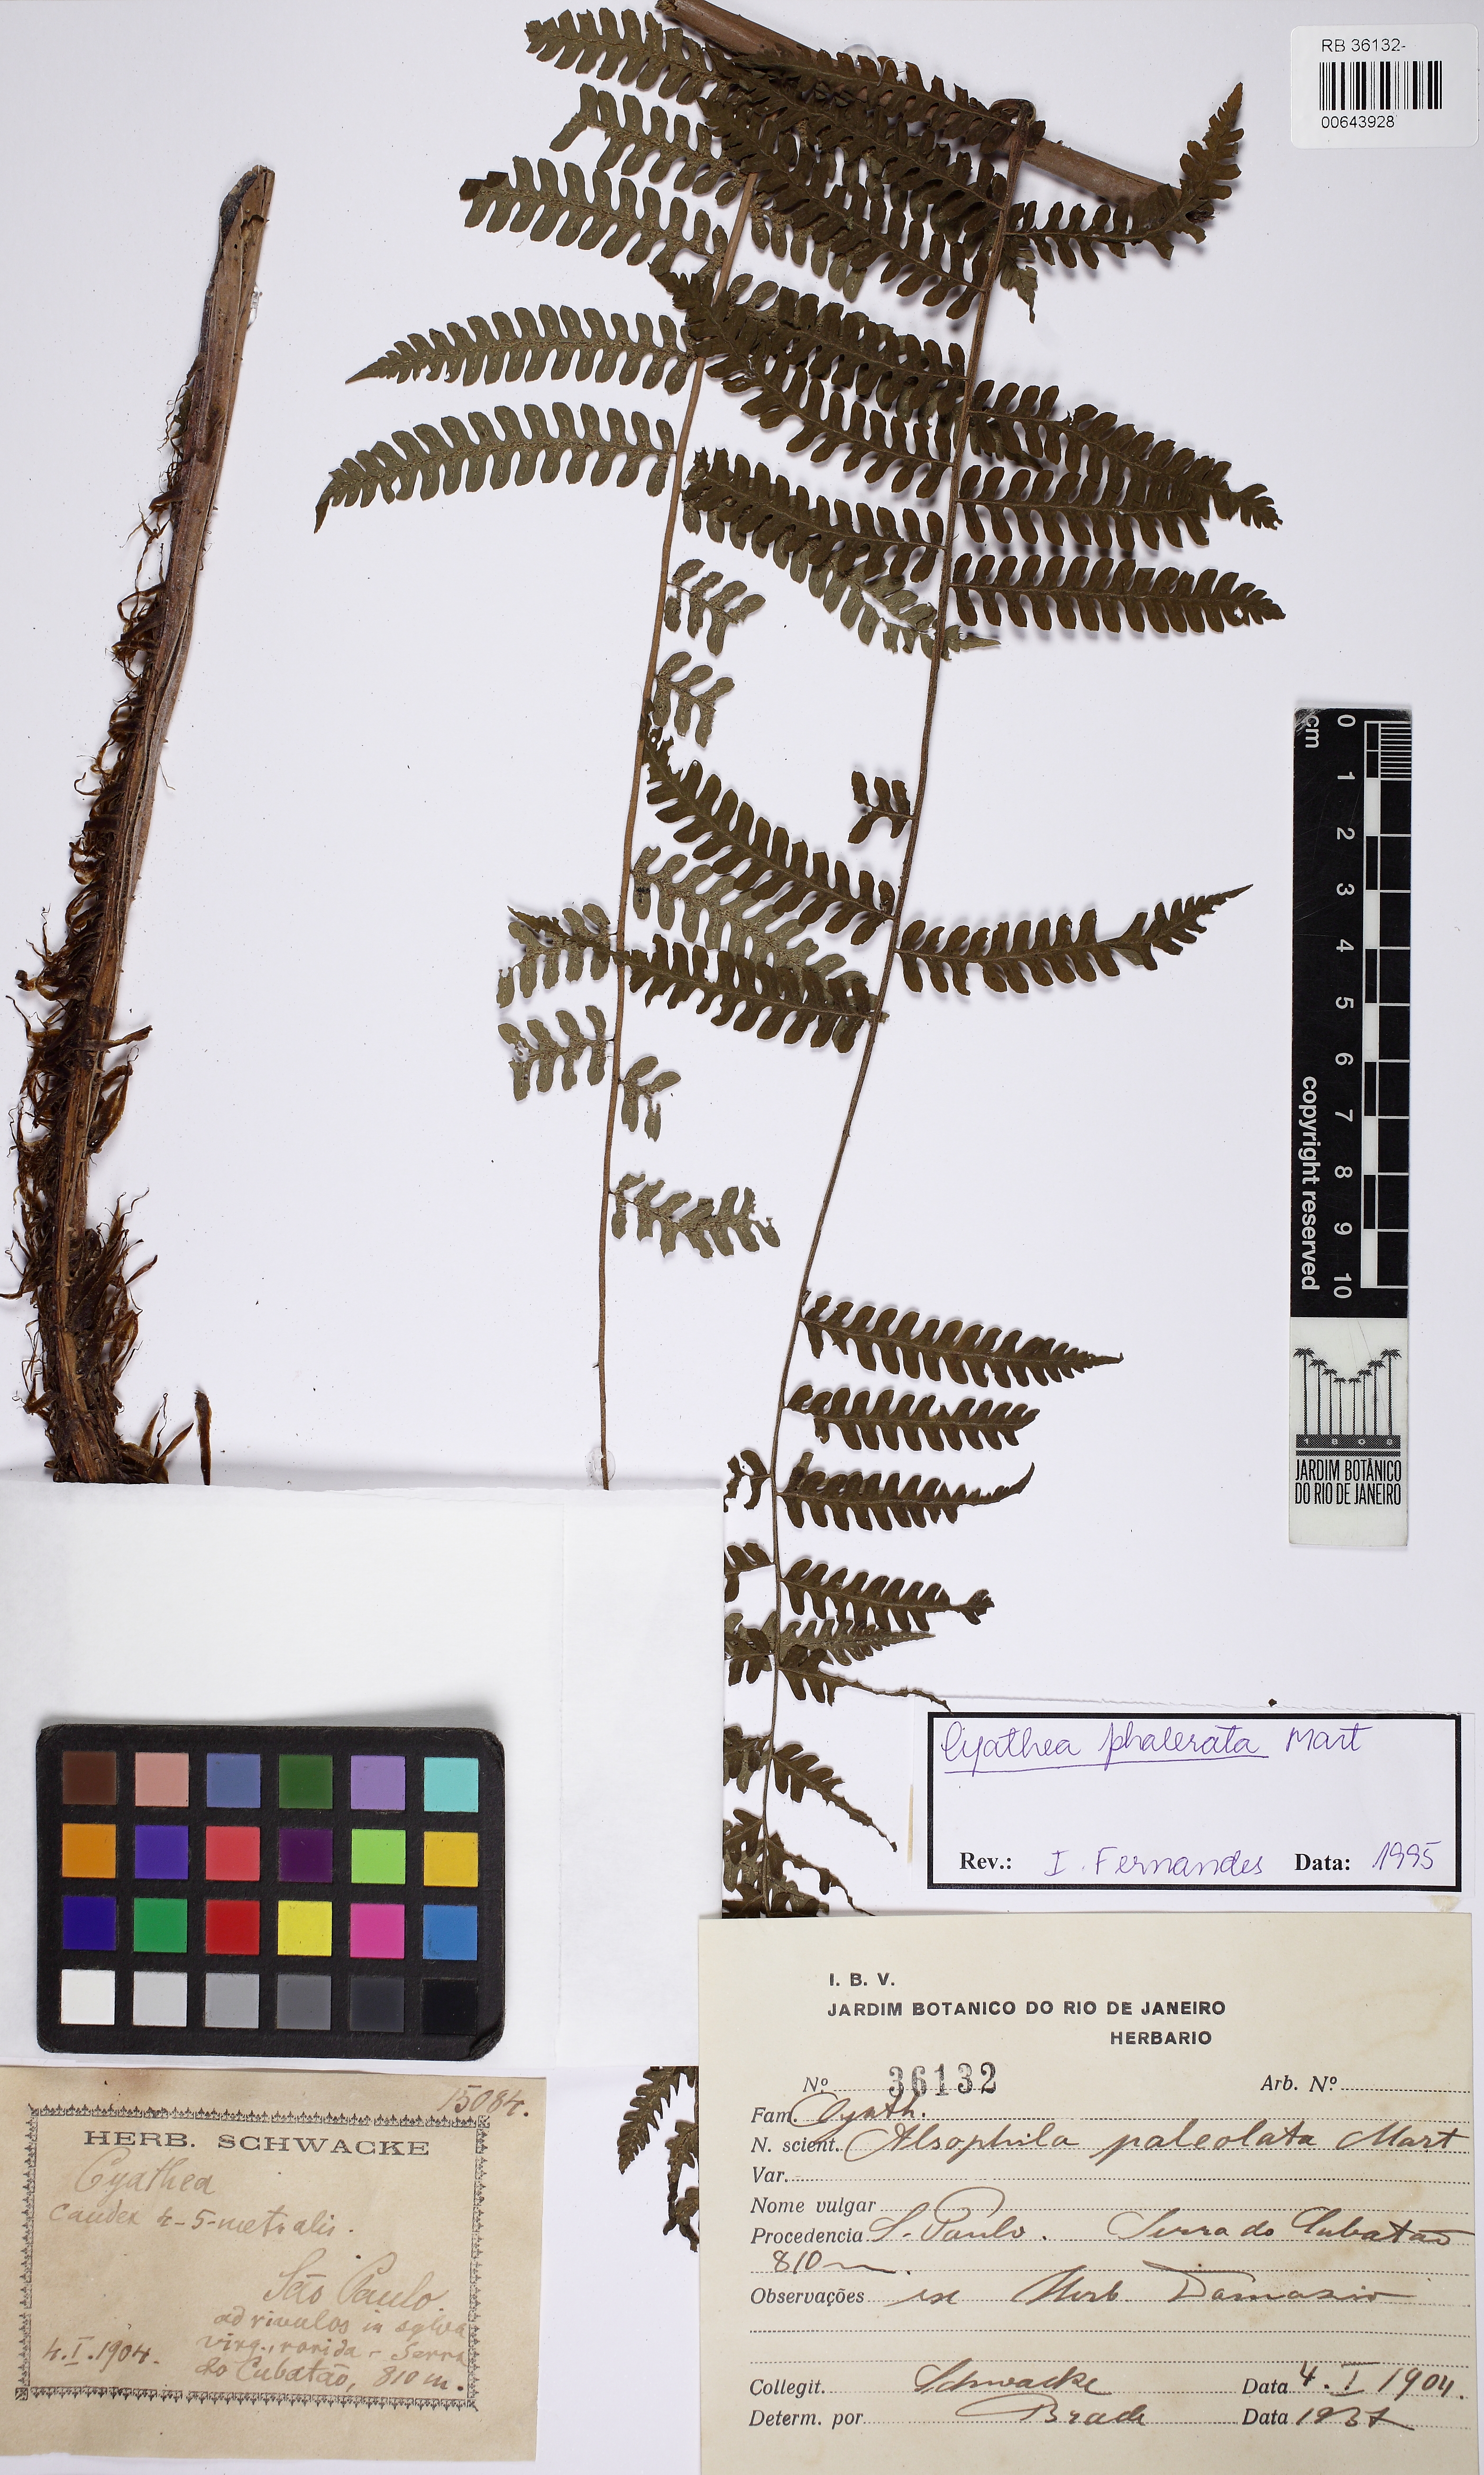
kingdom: Plantae
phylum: Tracheophyta
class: Polypodiopsida
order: Cyatheales
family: Cyatheaceae
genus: Cyathea
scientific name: Cyathea phalerata
